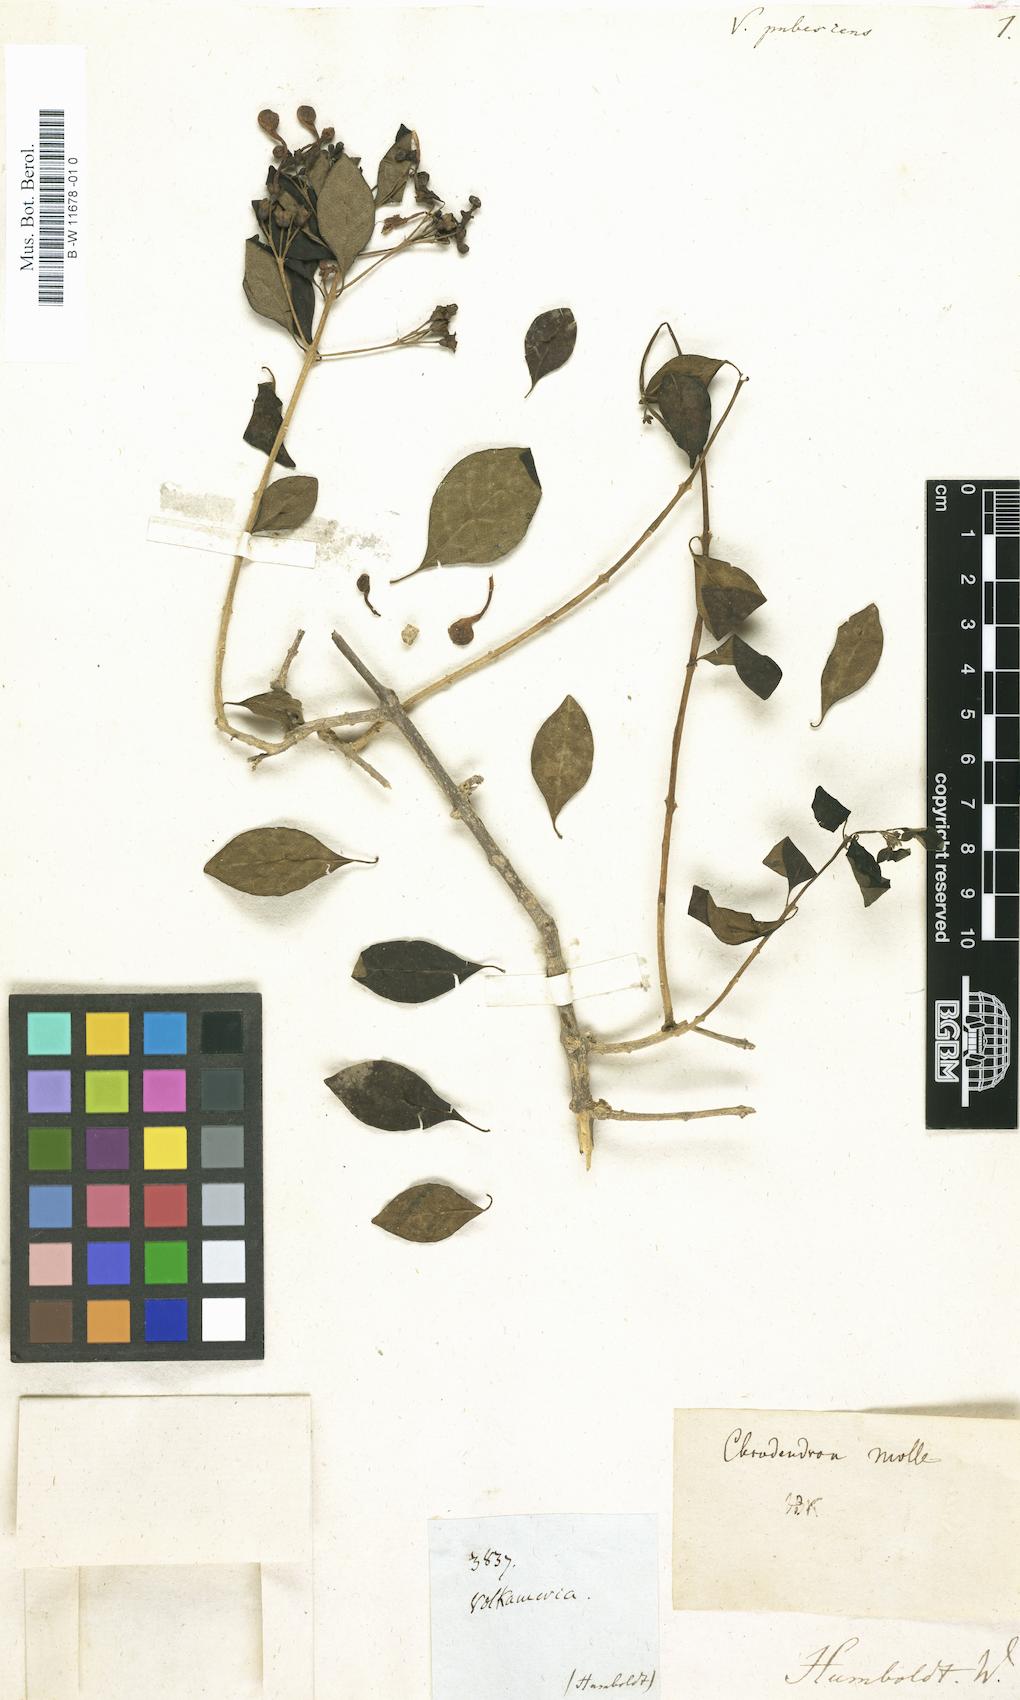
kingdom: Plantae
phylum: Tracheophyta
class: Magnoliopsida
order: Lamiales
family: Verbenaceae
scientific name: Verbenaceae
